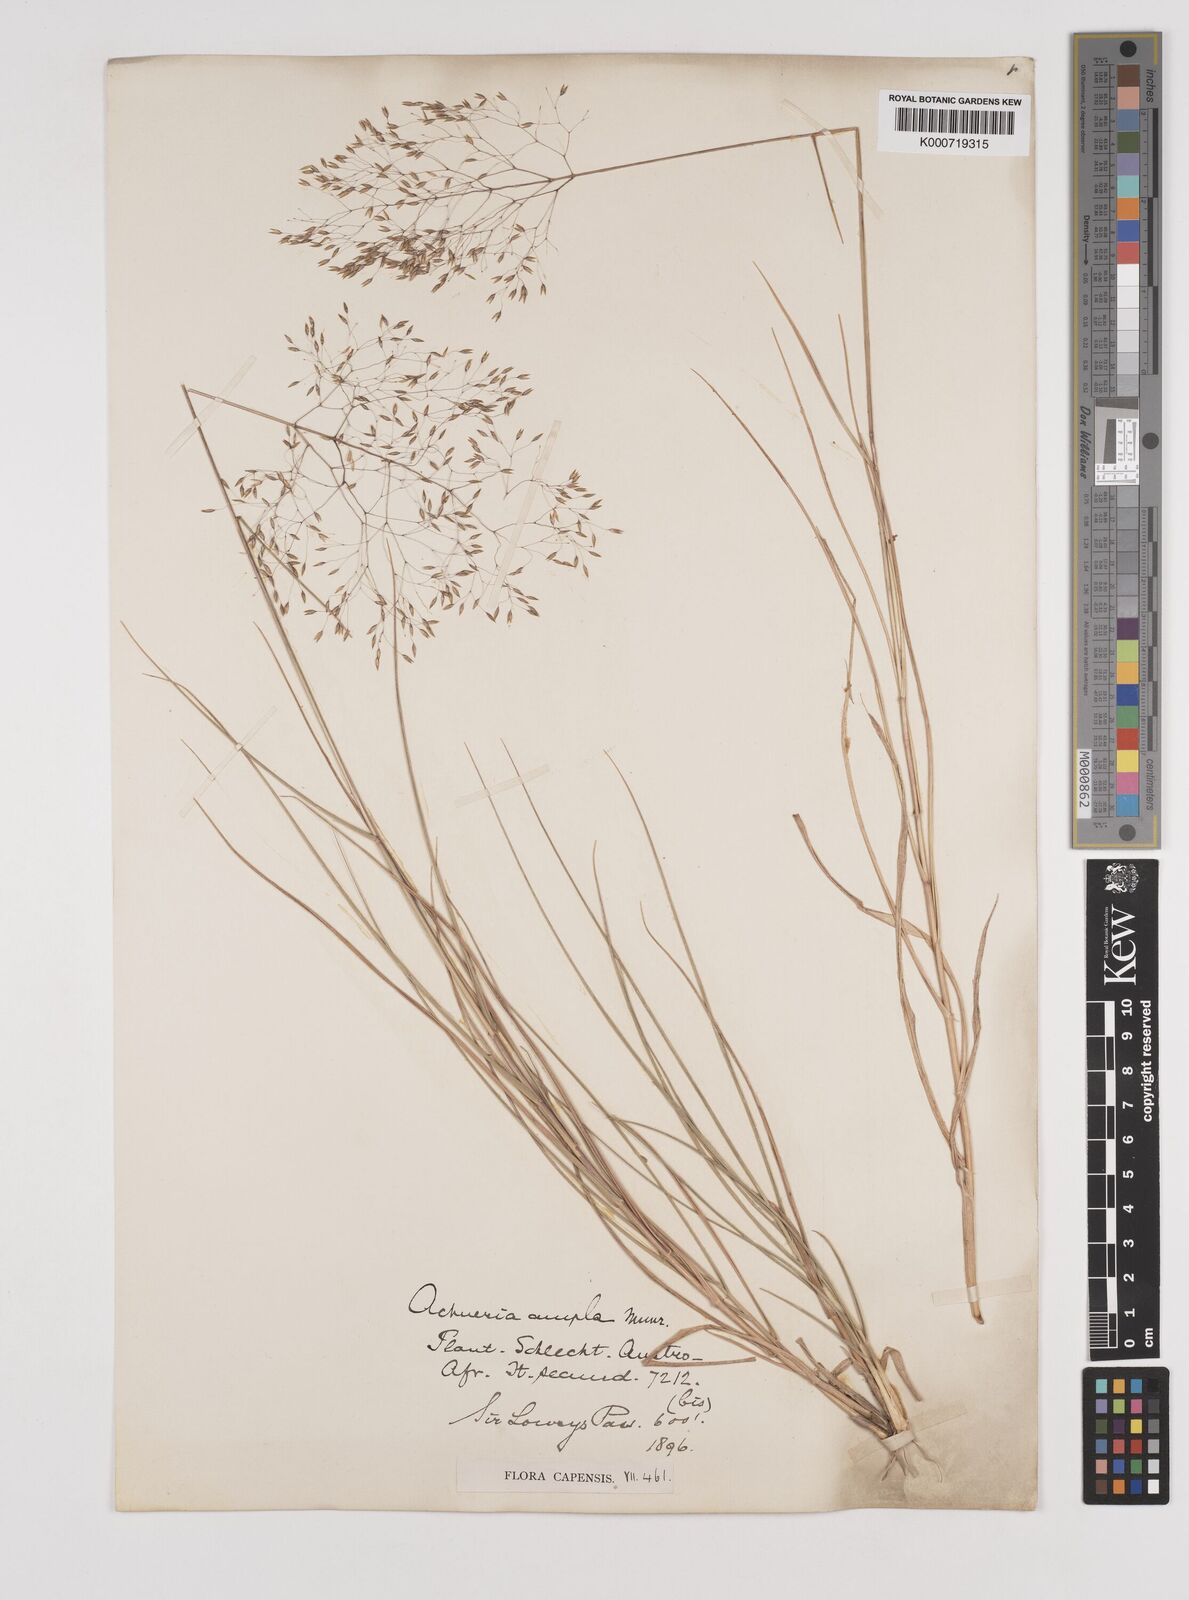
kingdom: Plantae
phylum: Tracheophyta
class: Liliopsida
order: Poales
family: Poaceae
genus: Pentameris
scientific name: Pentameris ampla
